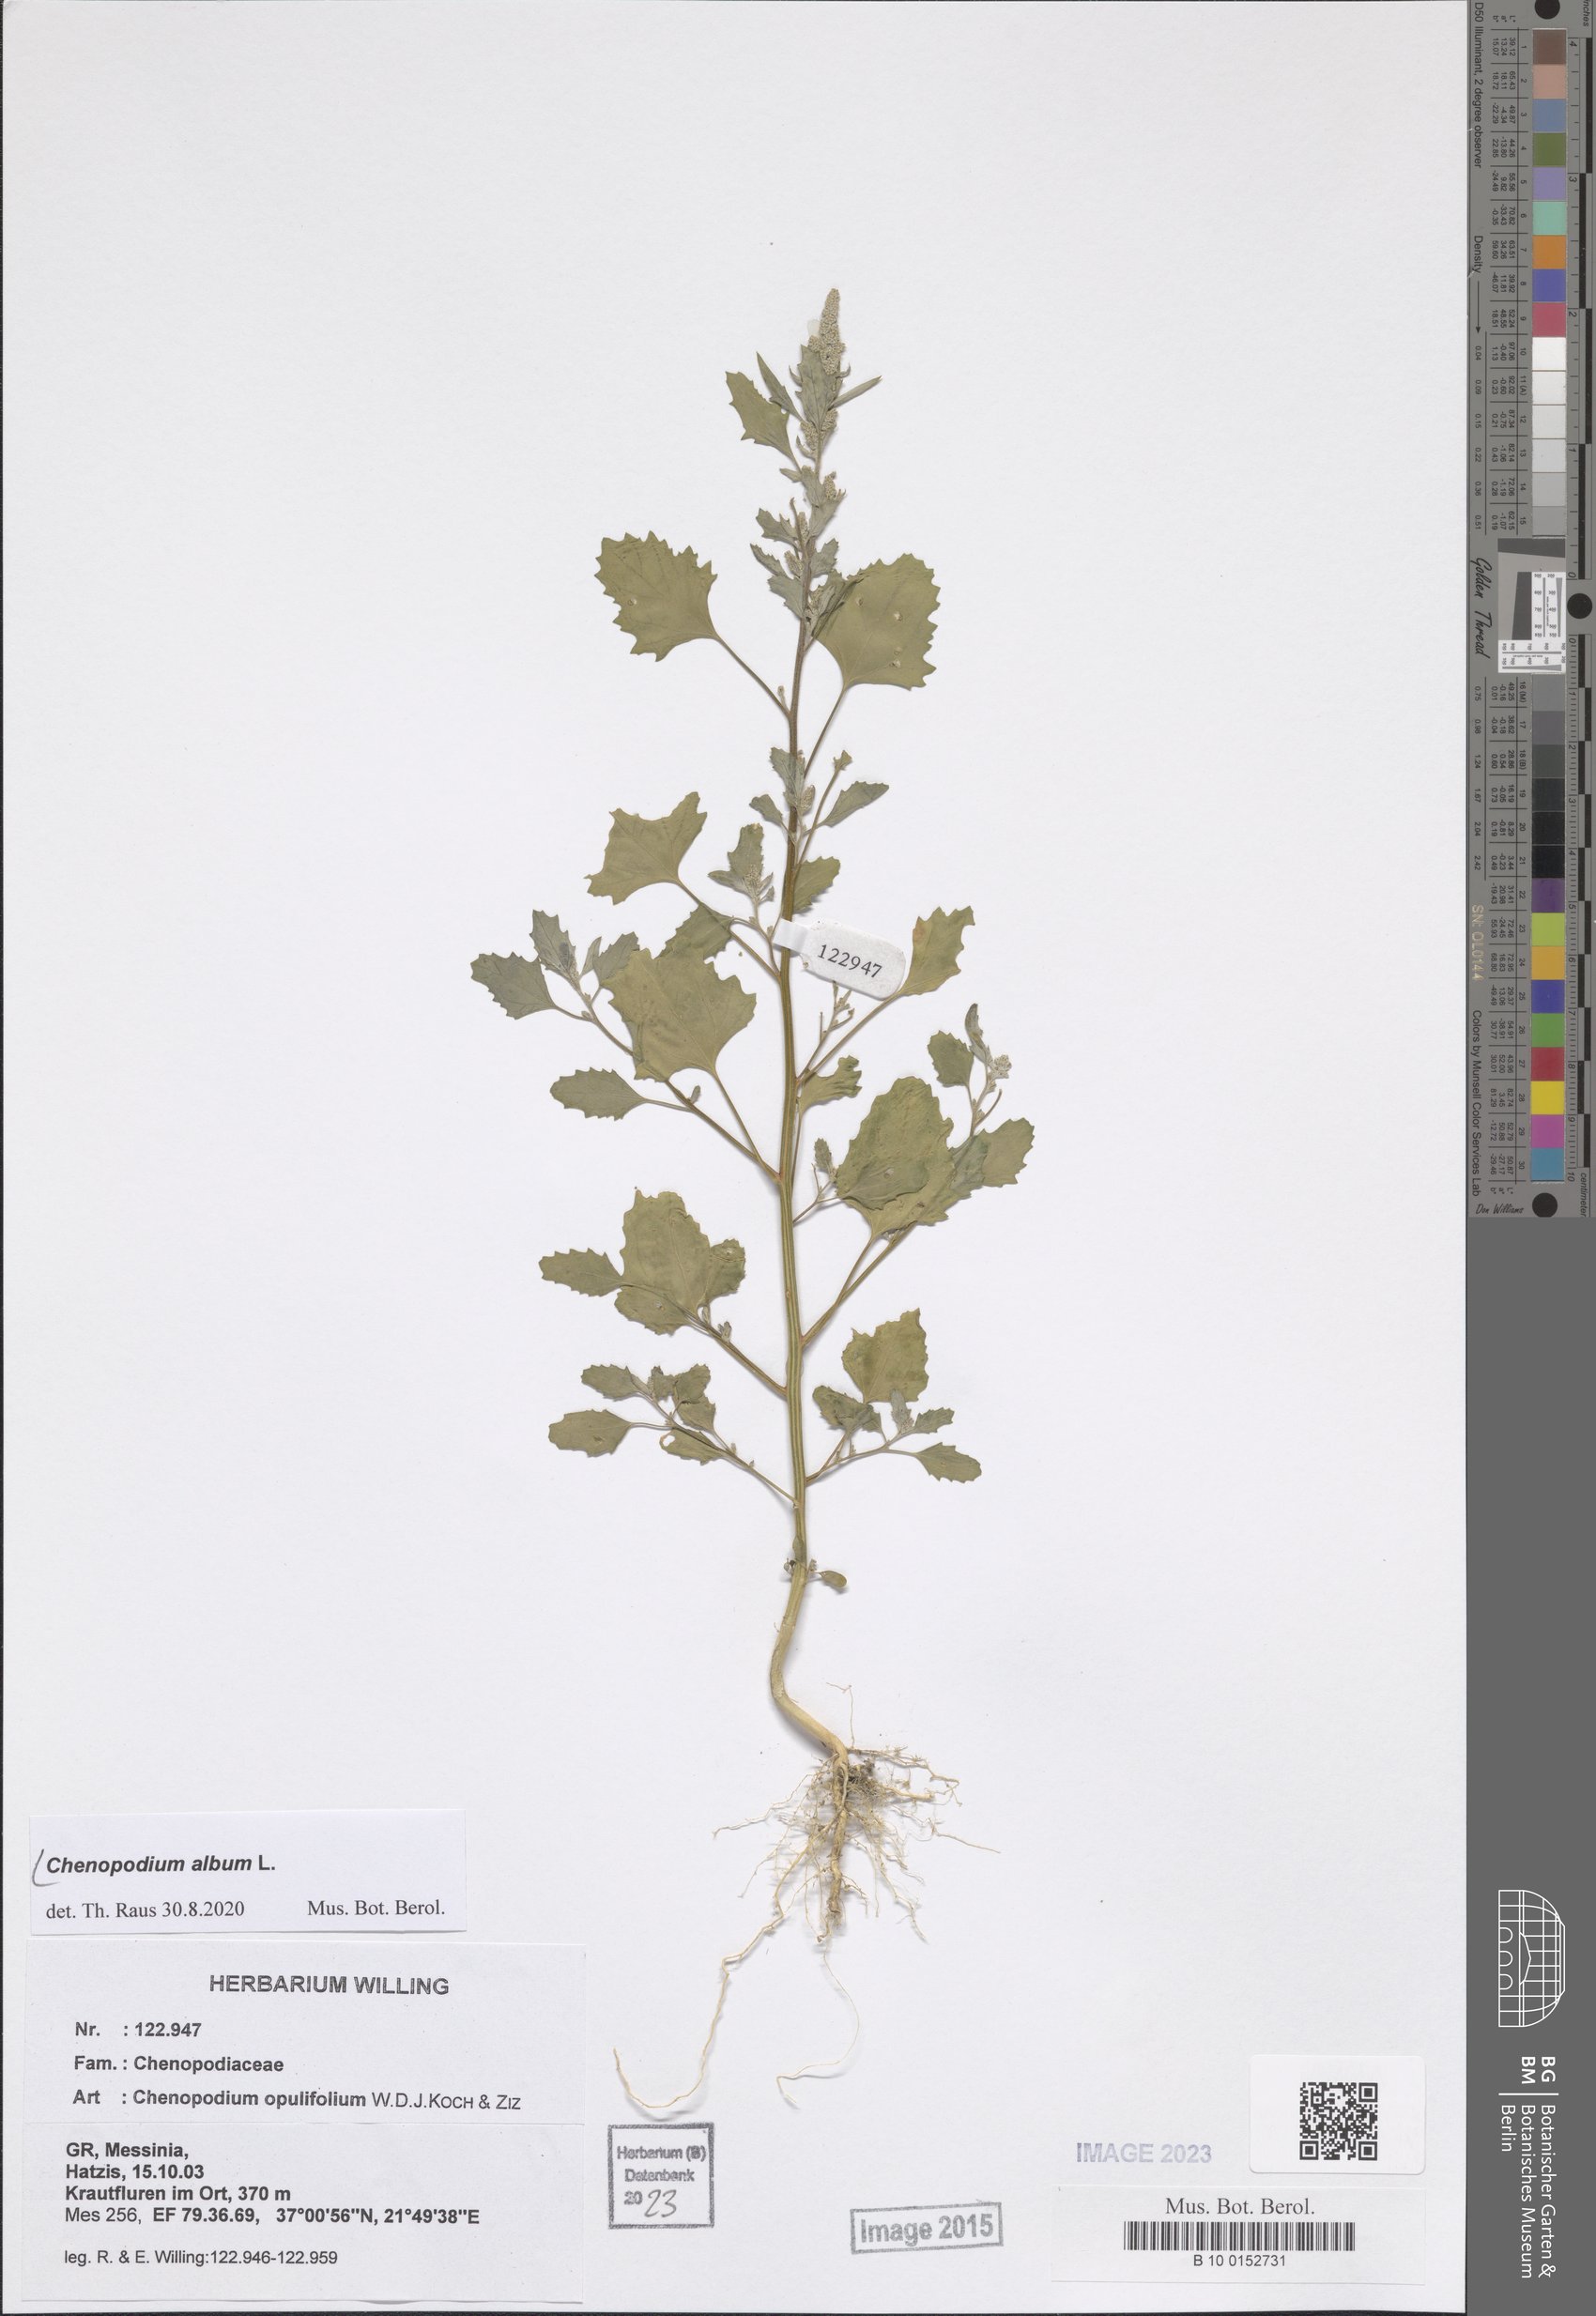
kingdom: Plantae
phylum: Tracheophyta
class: Magnoliopsida
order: Caryophyllales
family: Amaranthaceae
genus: Chenopodium
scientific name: Chenopodium album
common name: Fat-hen
